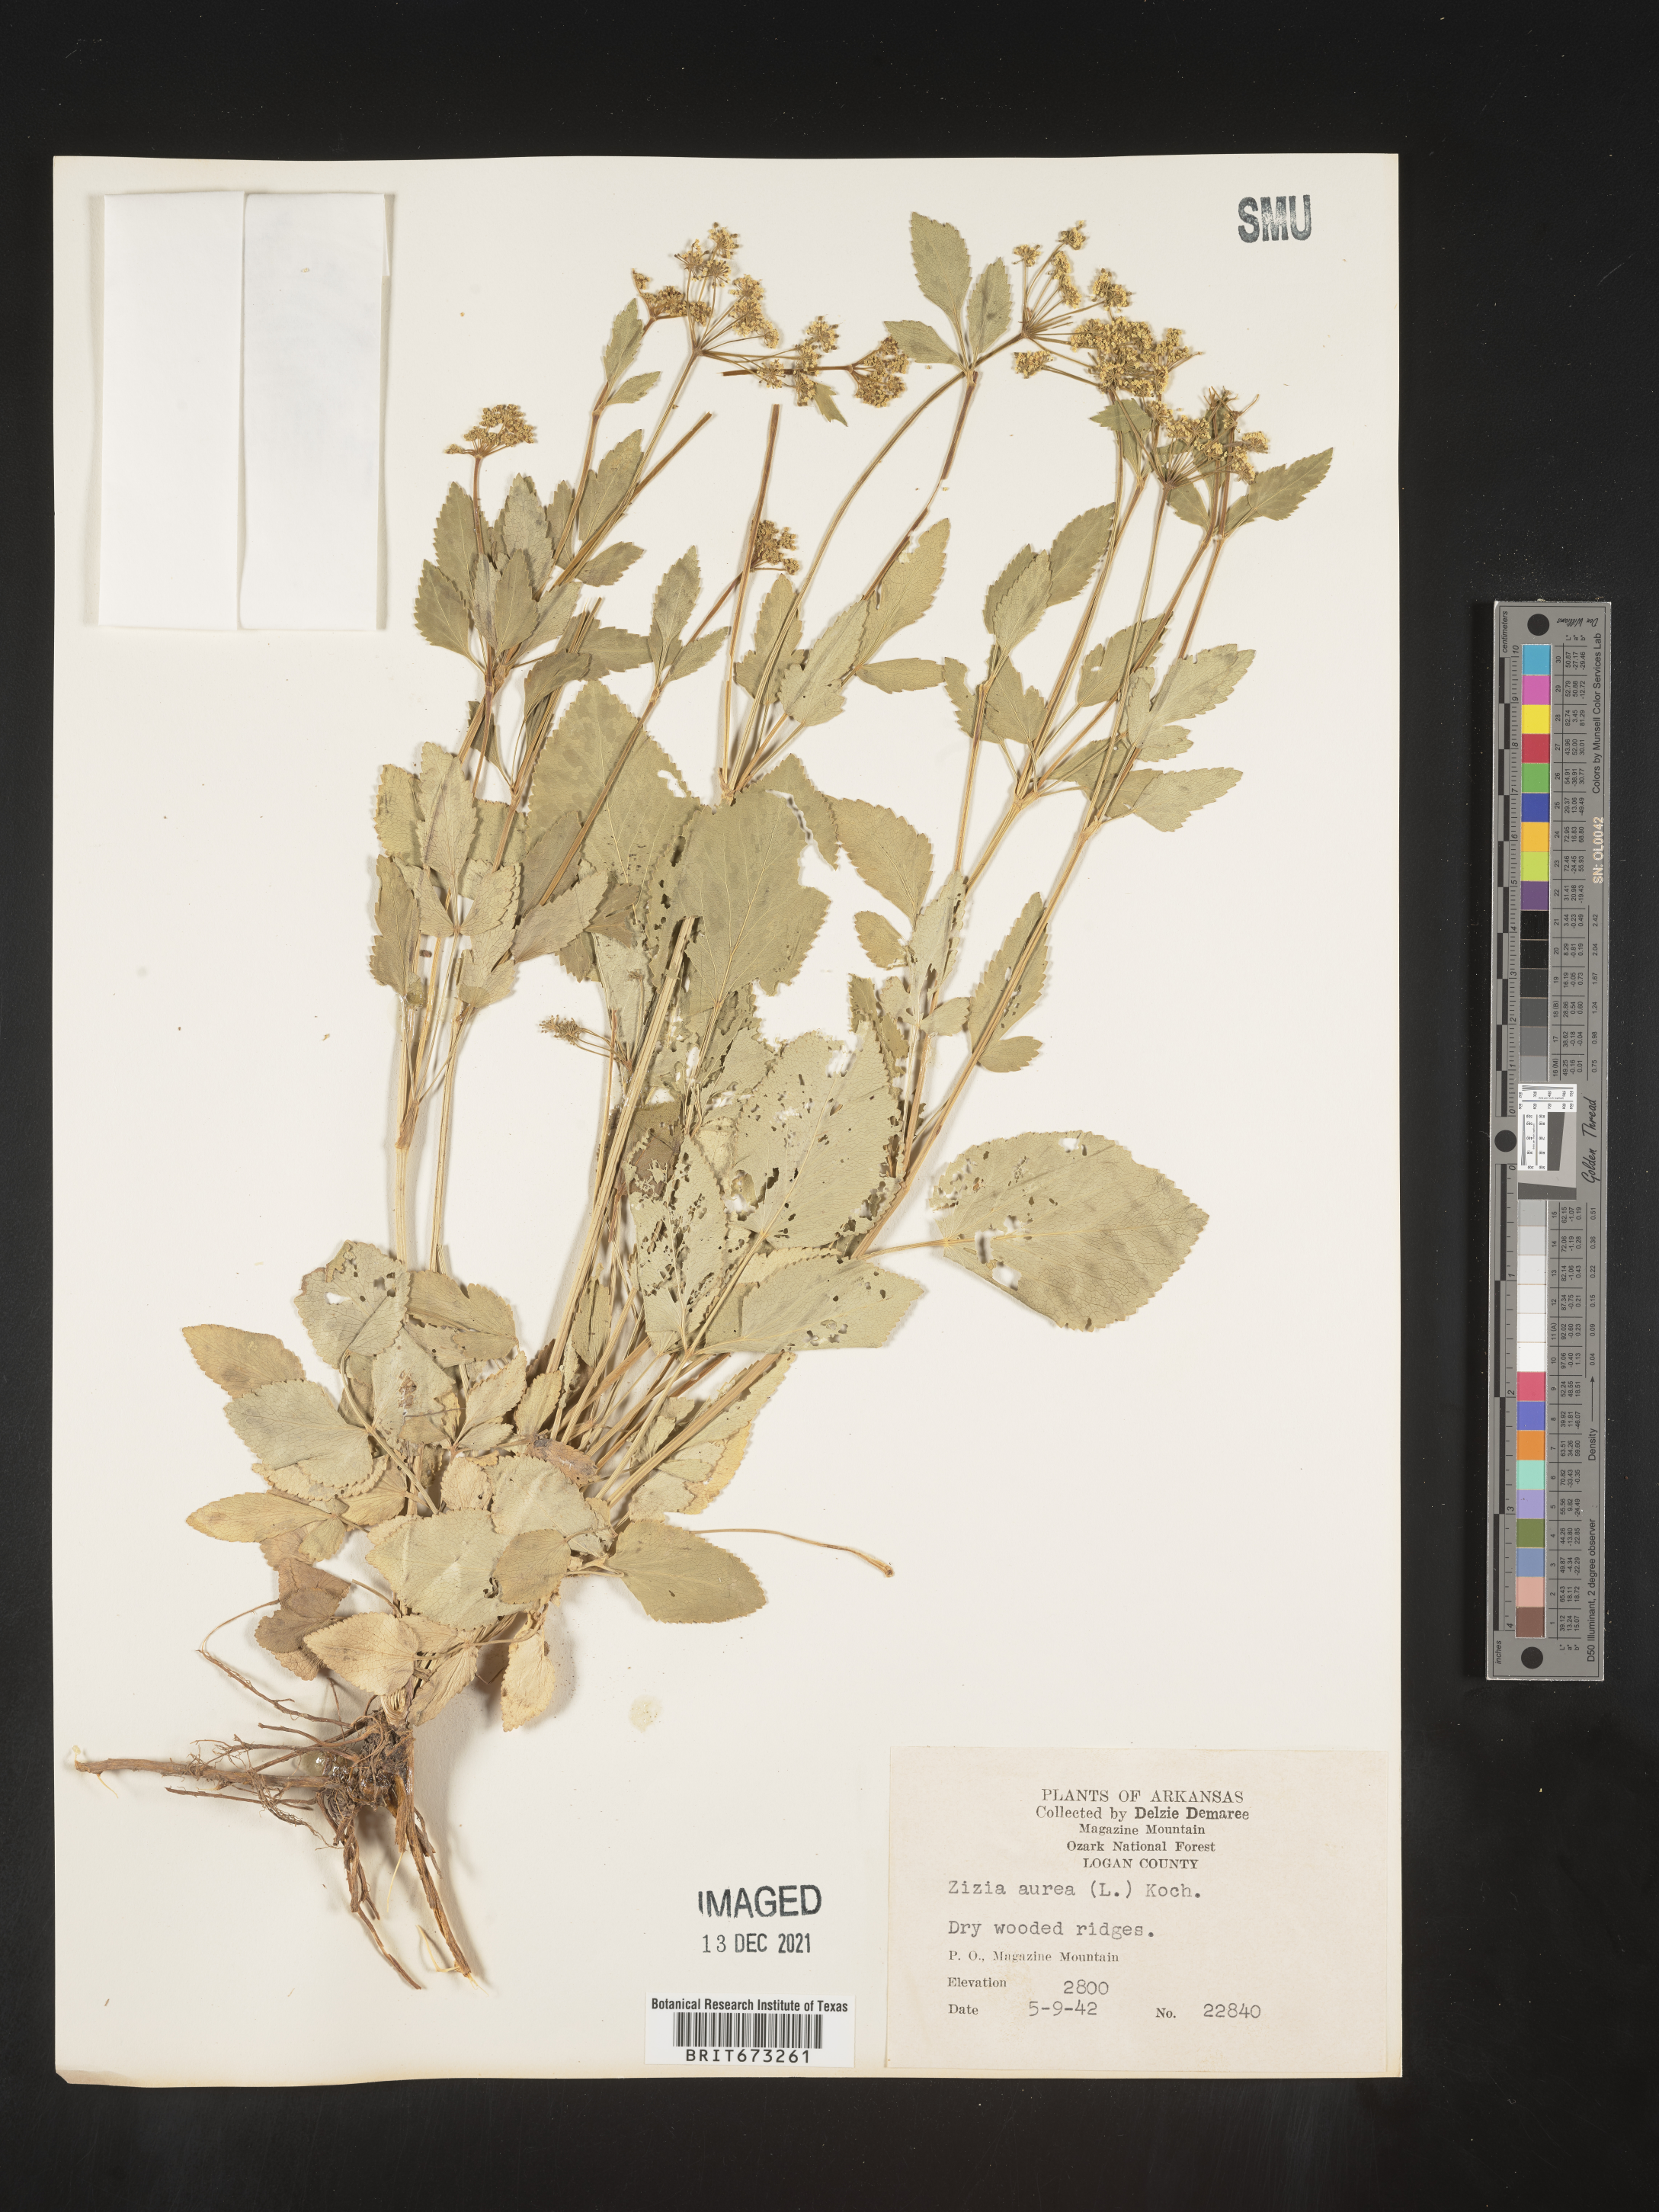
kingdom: Plantae
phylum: Tracheophyta
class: Magnoliopsida
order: Apiales
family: Apiaceae
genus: Zizia
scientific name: Zizia aurea
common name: Golden alexanders
